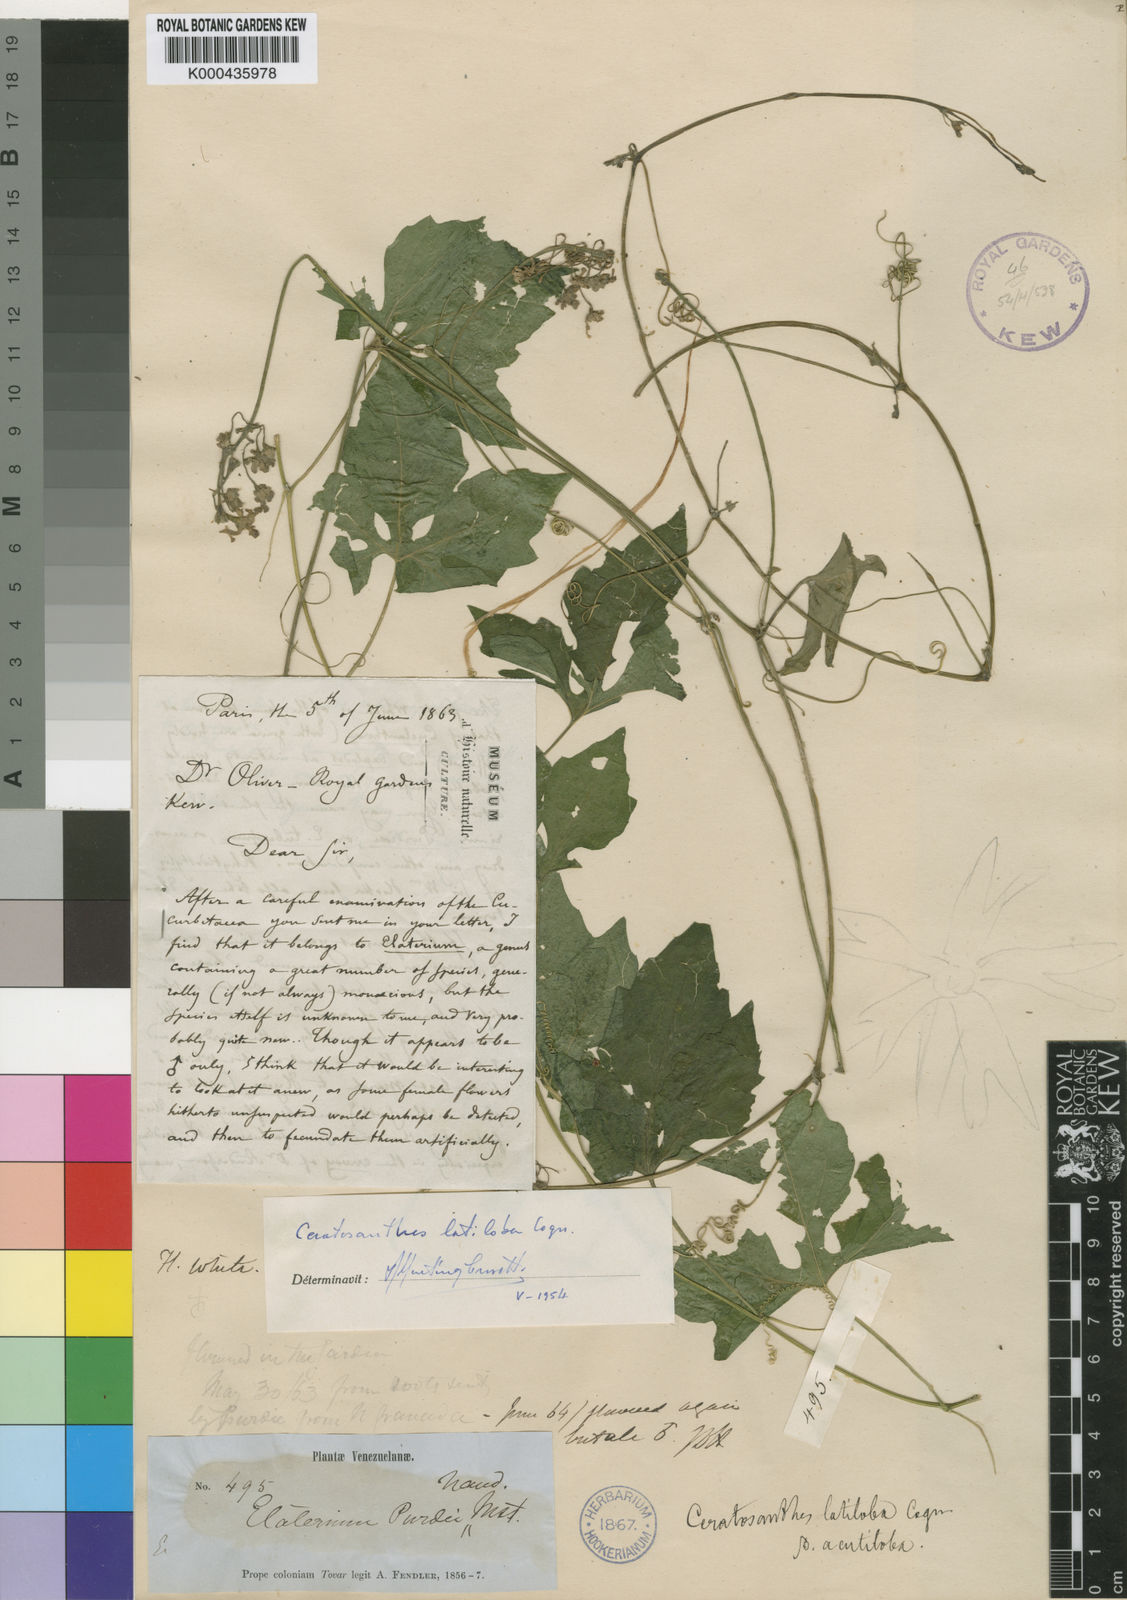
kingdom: Plantae
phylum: Tracheophyta
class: Magnoliopsida
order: Cucurbitales
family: Cucurbitaceae
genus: Ceratosanthes
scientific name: Ceratosanthes palmata
